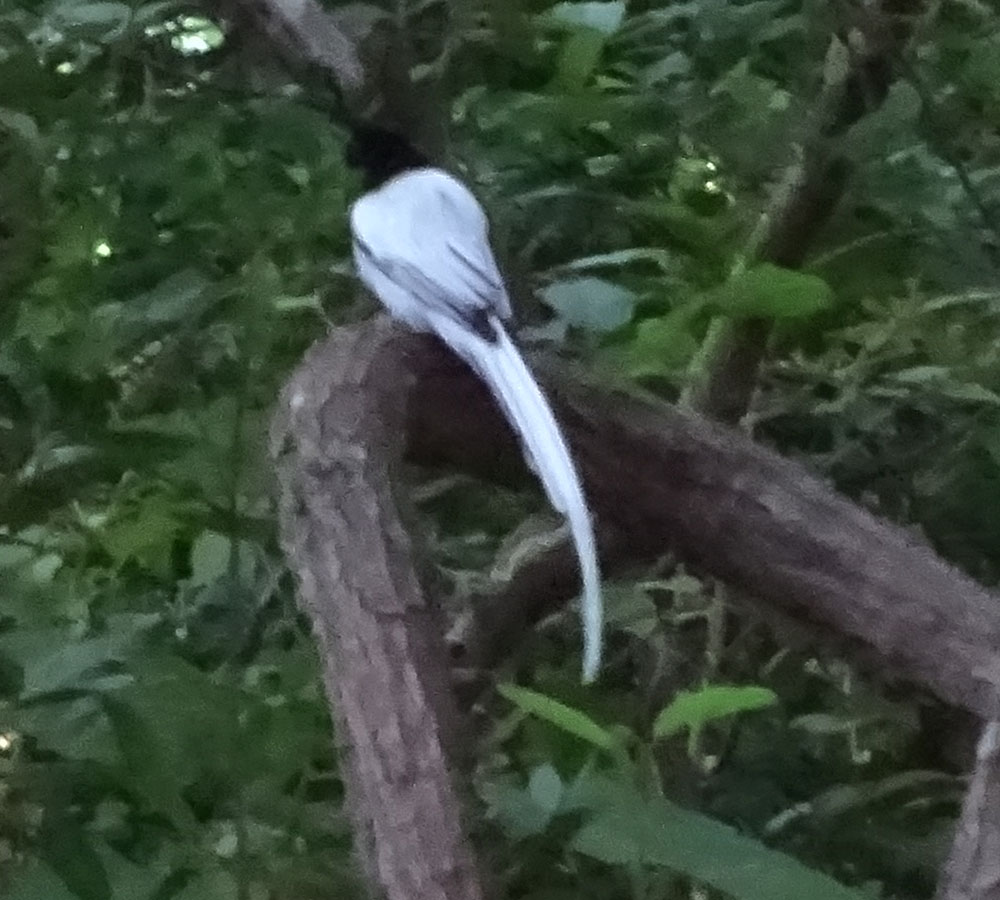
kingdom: Animalia
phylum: Chordata
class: Aves
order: Passeriformes
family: Monarchidae
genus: Terpsiphone
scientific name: Terpsiphone paradisi
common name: Indian paradise flycatcher
